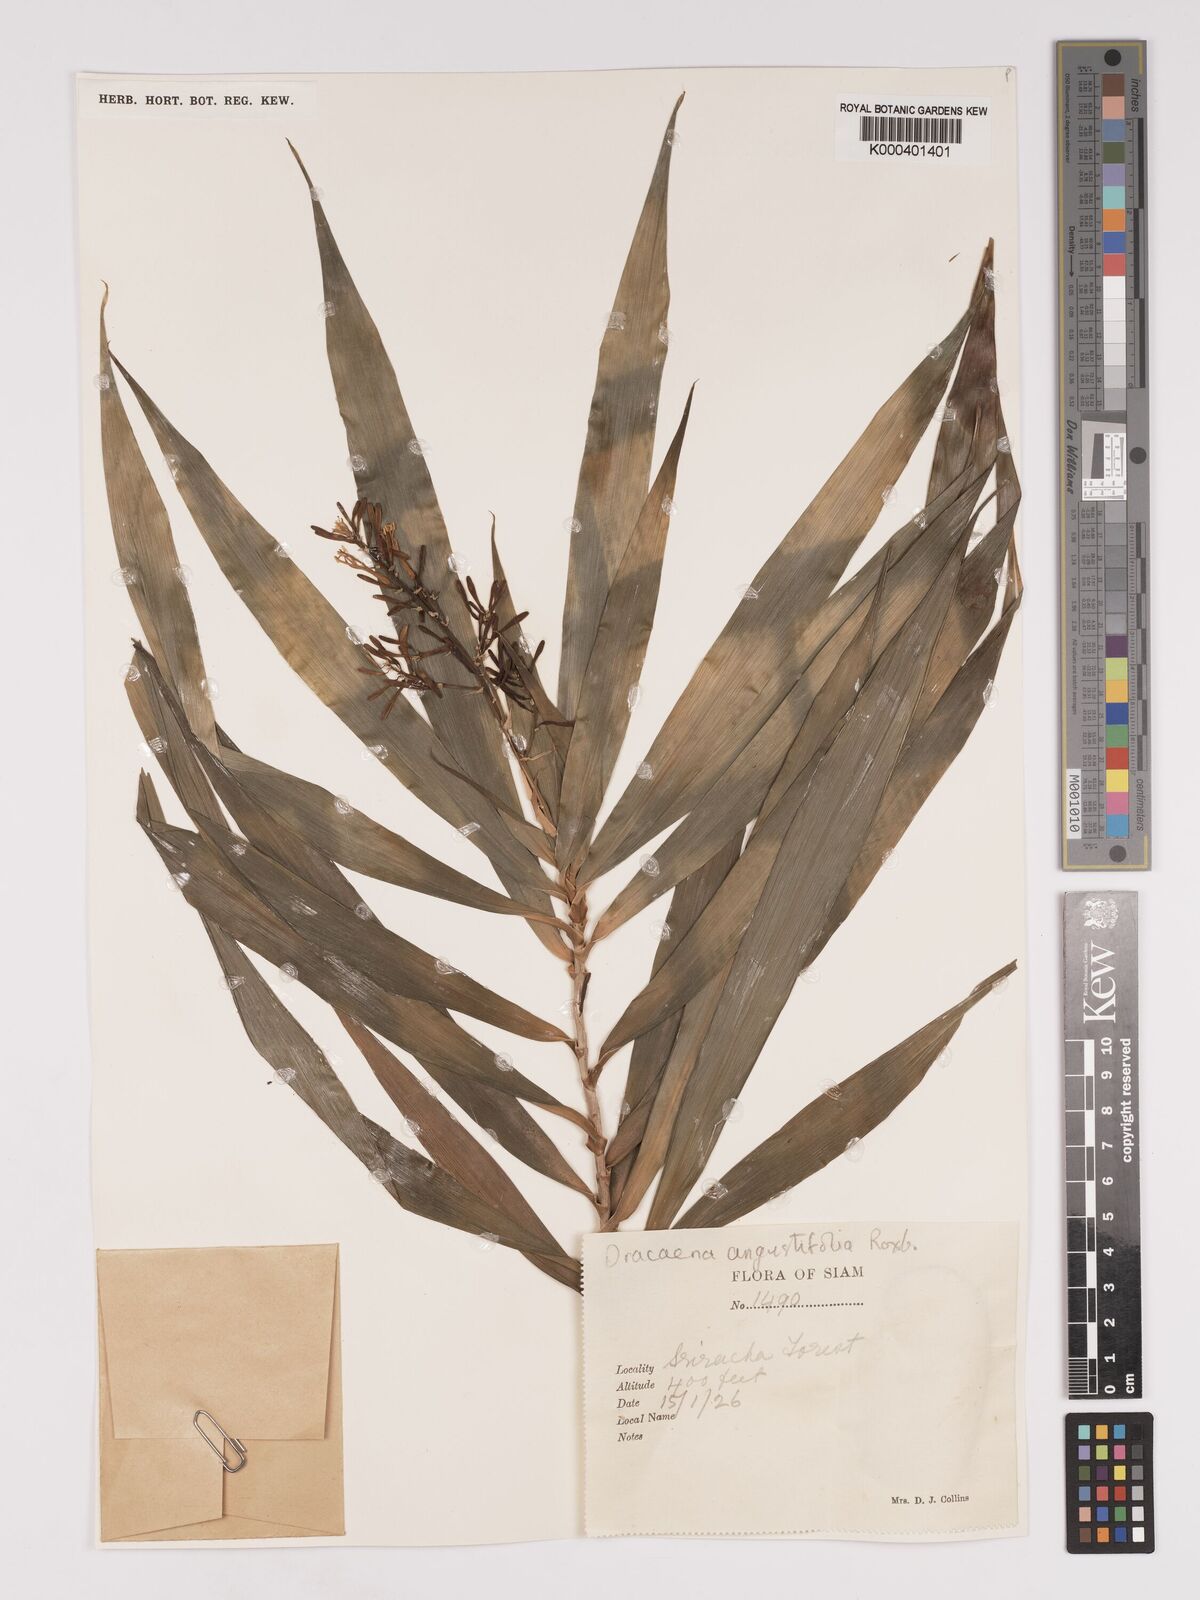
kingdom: Plantae
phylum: Tracheophyta
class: Liliopsida
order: Asparagales
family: Asparagaceae
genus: Dracaena
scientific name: Dracaena angustifolia
